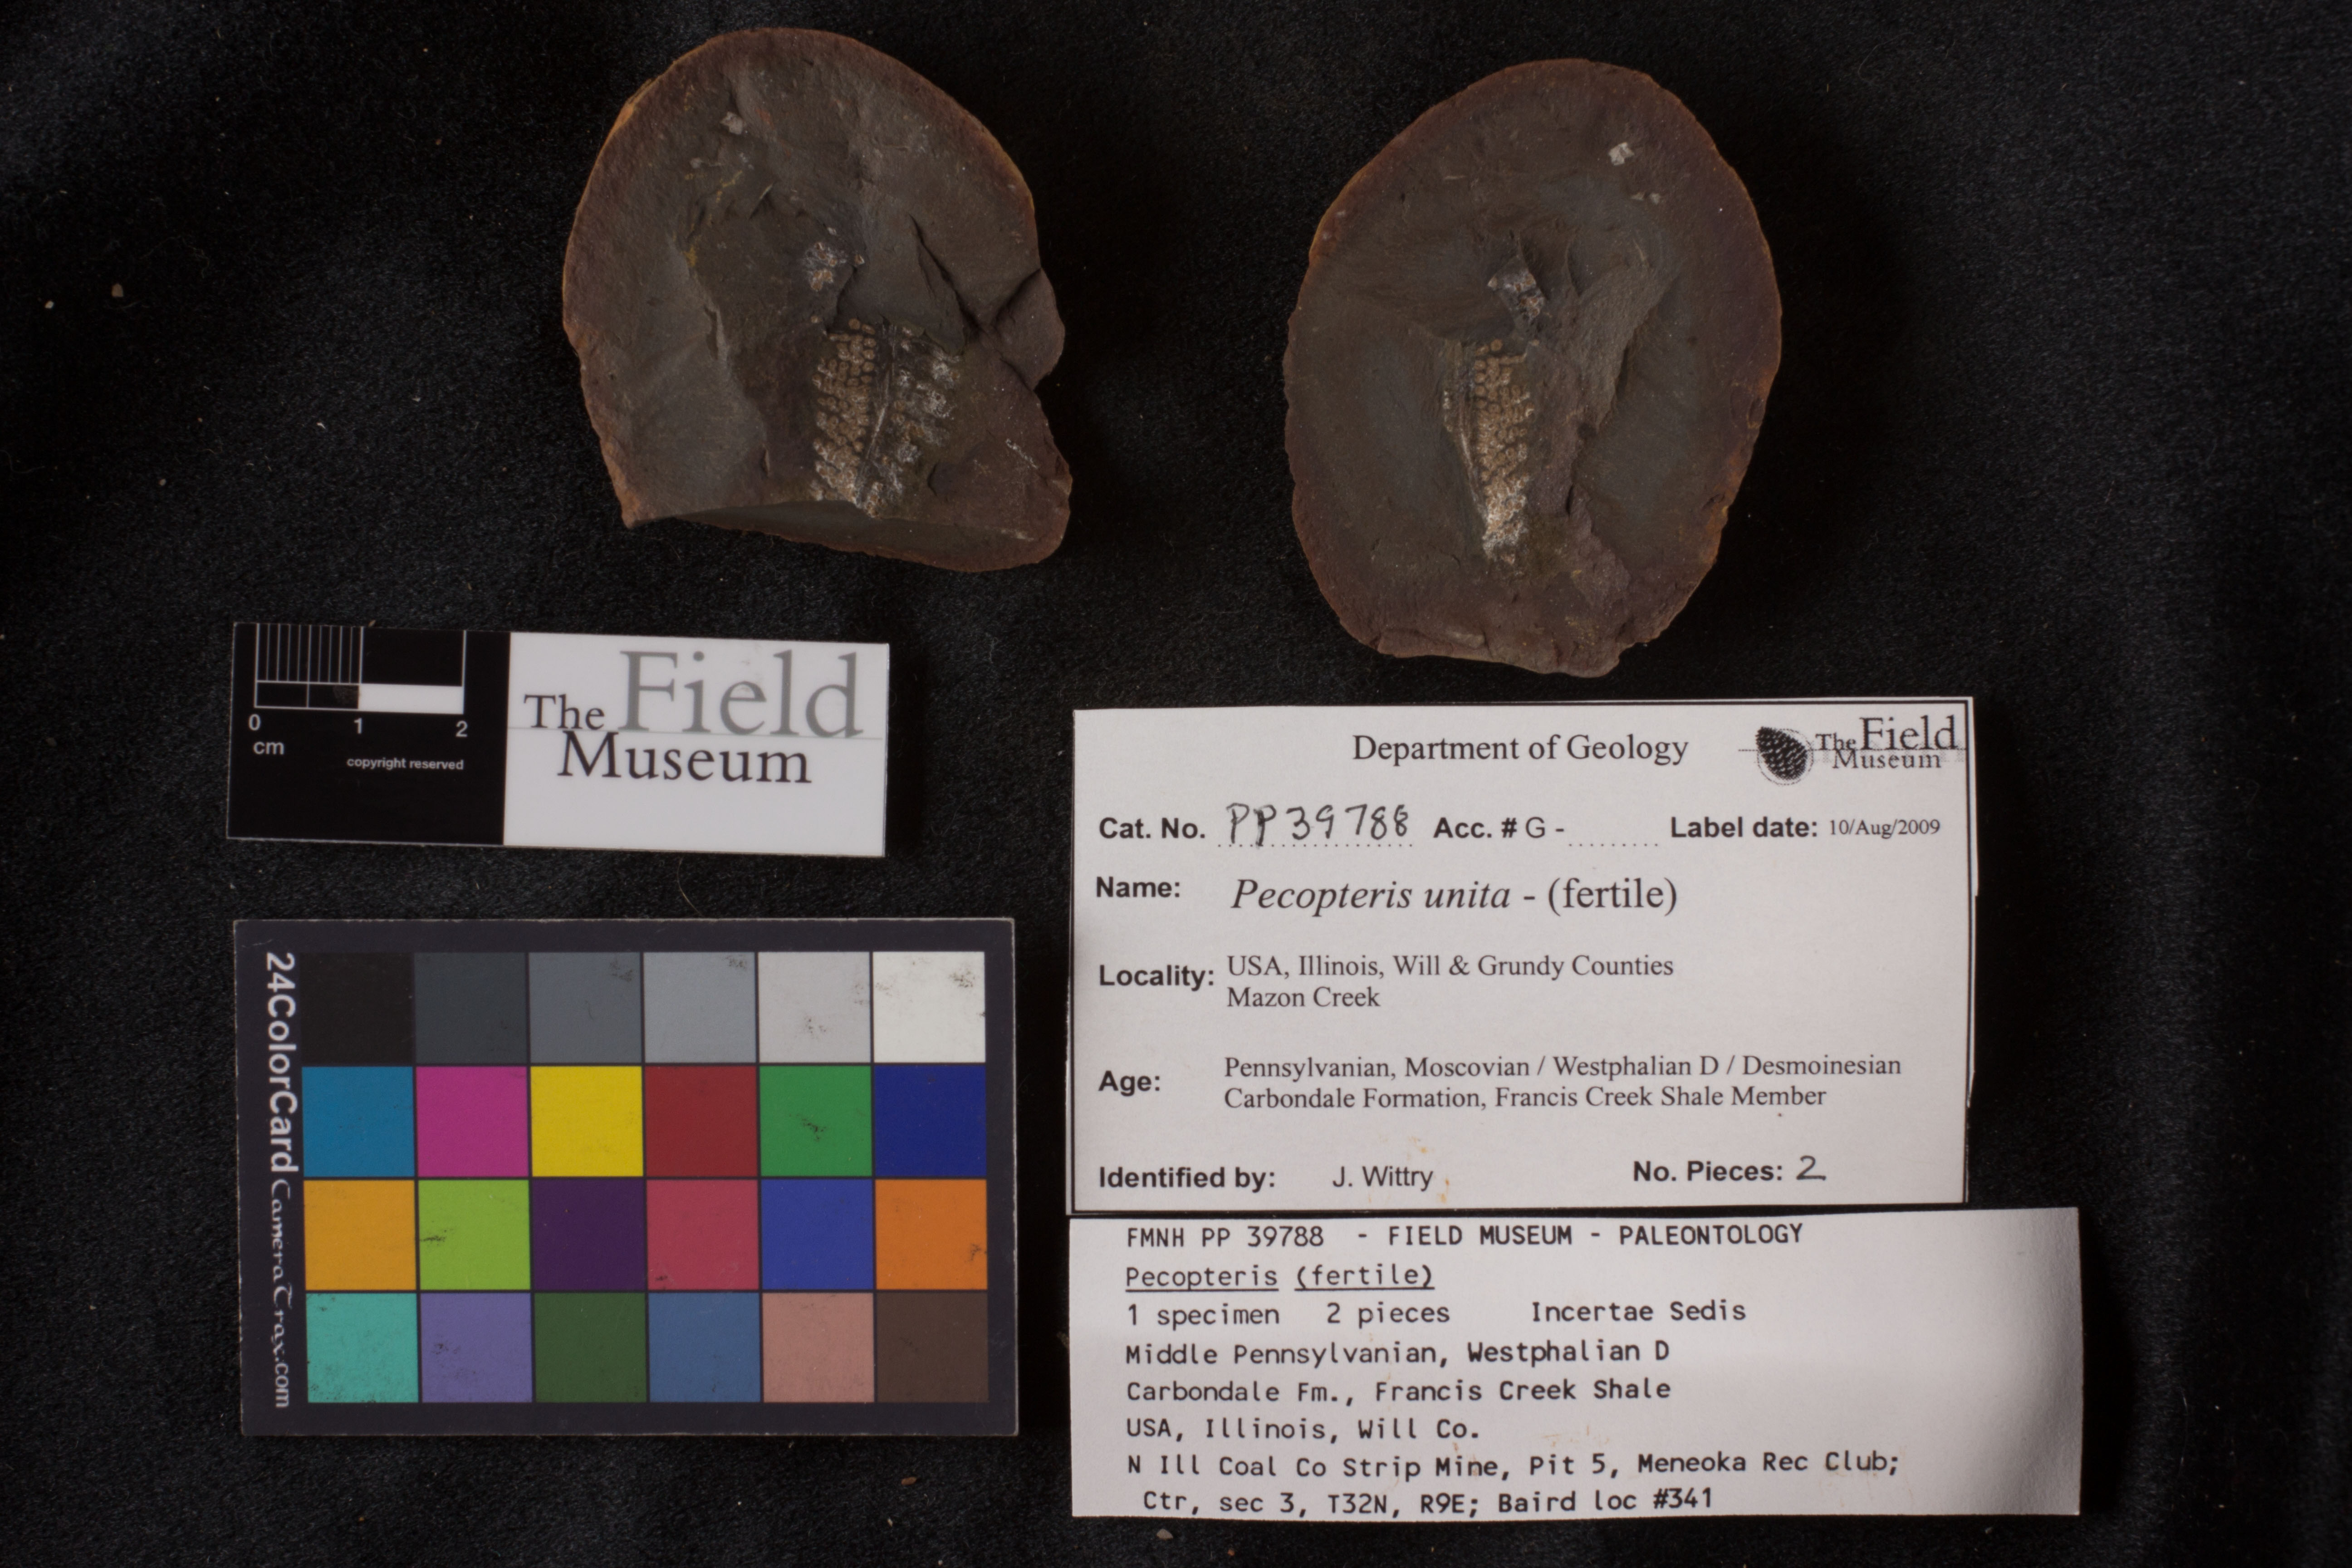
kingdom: Plantae
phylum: Tracheophyta
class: Polypodiopsida
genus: Diplazites
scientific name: Diplazites
